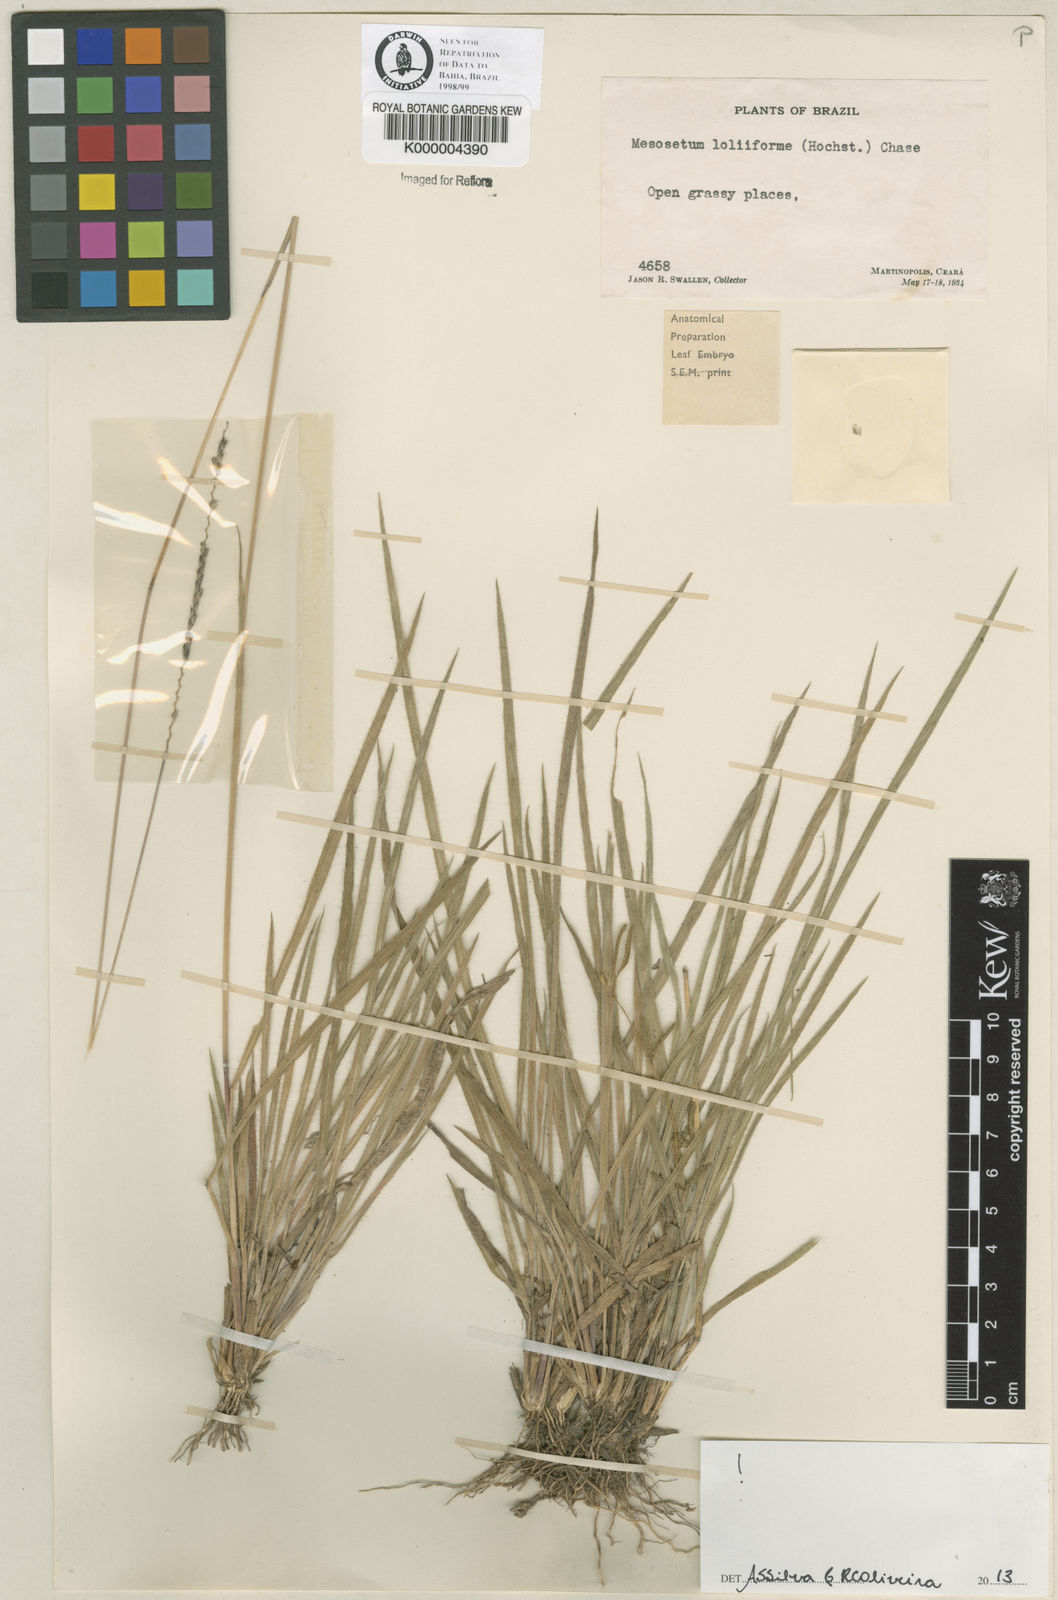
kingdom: Plantae
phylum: Tracheophyta
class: Liliopsida
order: Poales
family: Poaceae
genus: Mesosetum
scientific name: Mesosetum
